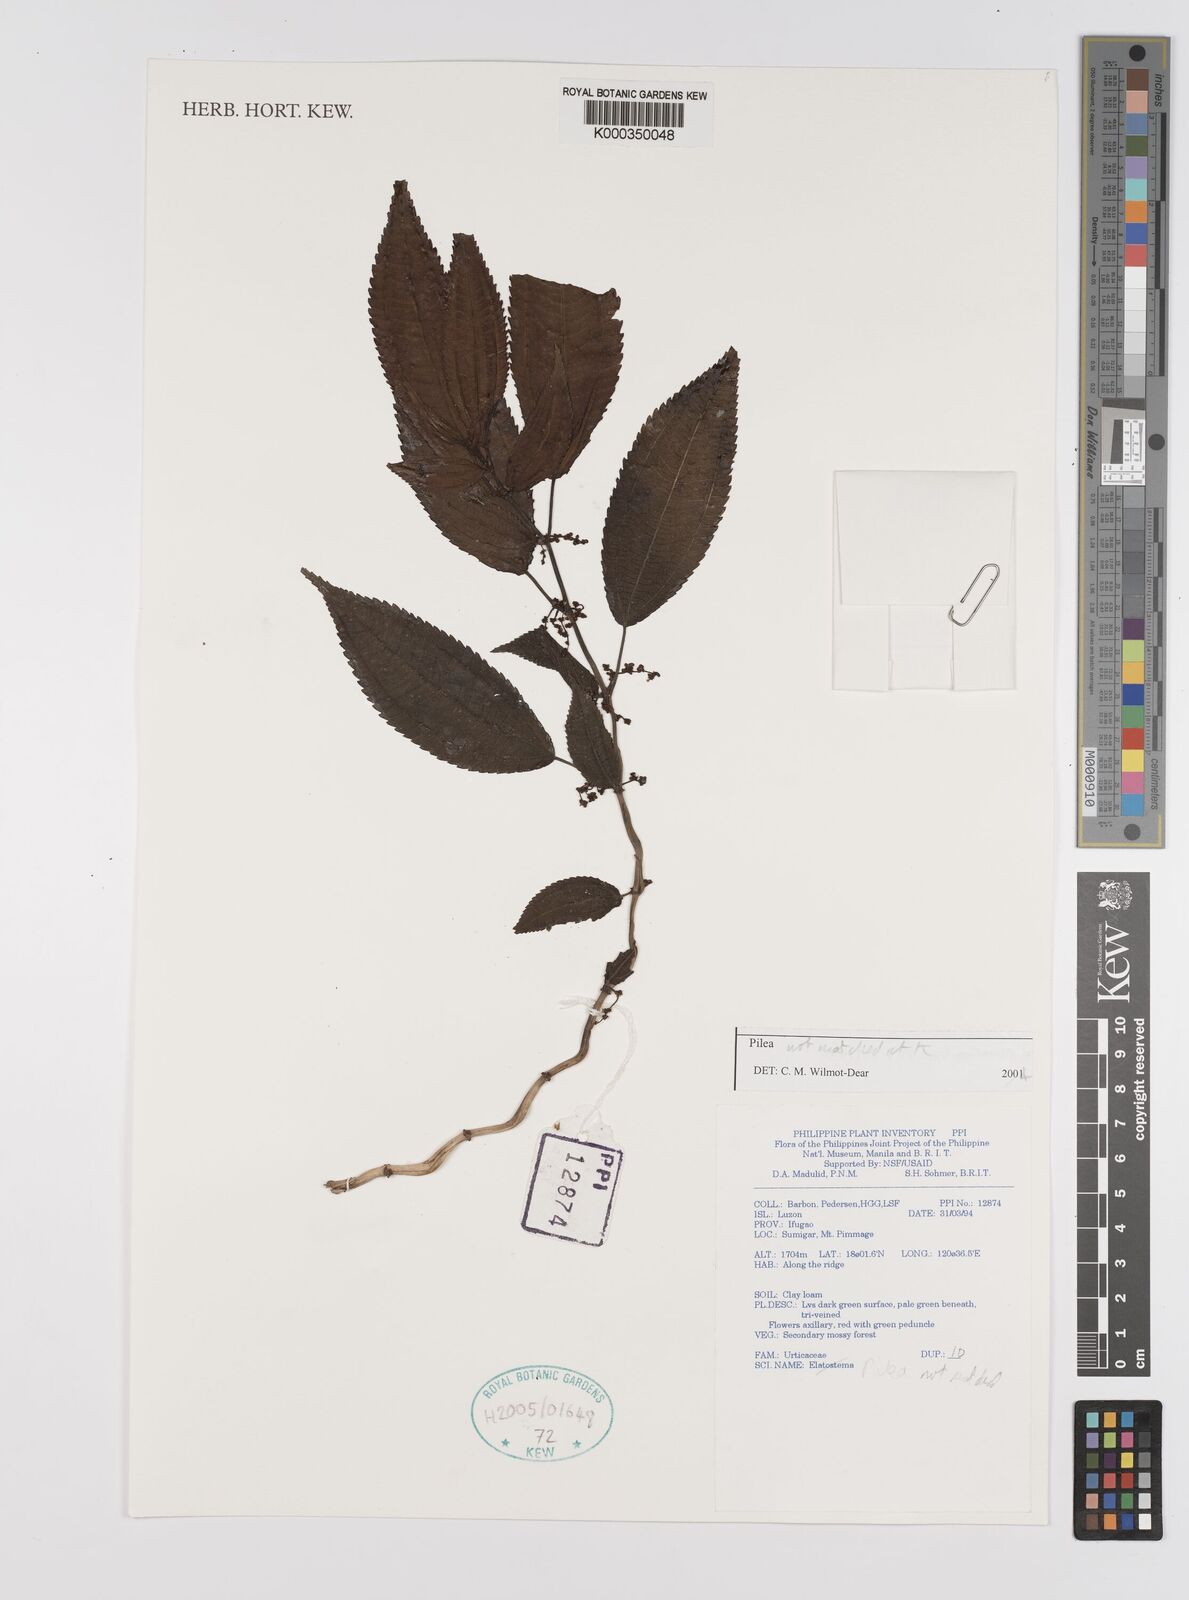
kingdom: Plantae
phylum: Tracheophyta
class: Magnoliopsida
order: Rosales
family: Urticaceae
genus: Pilea
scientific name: Pilea
